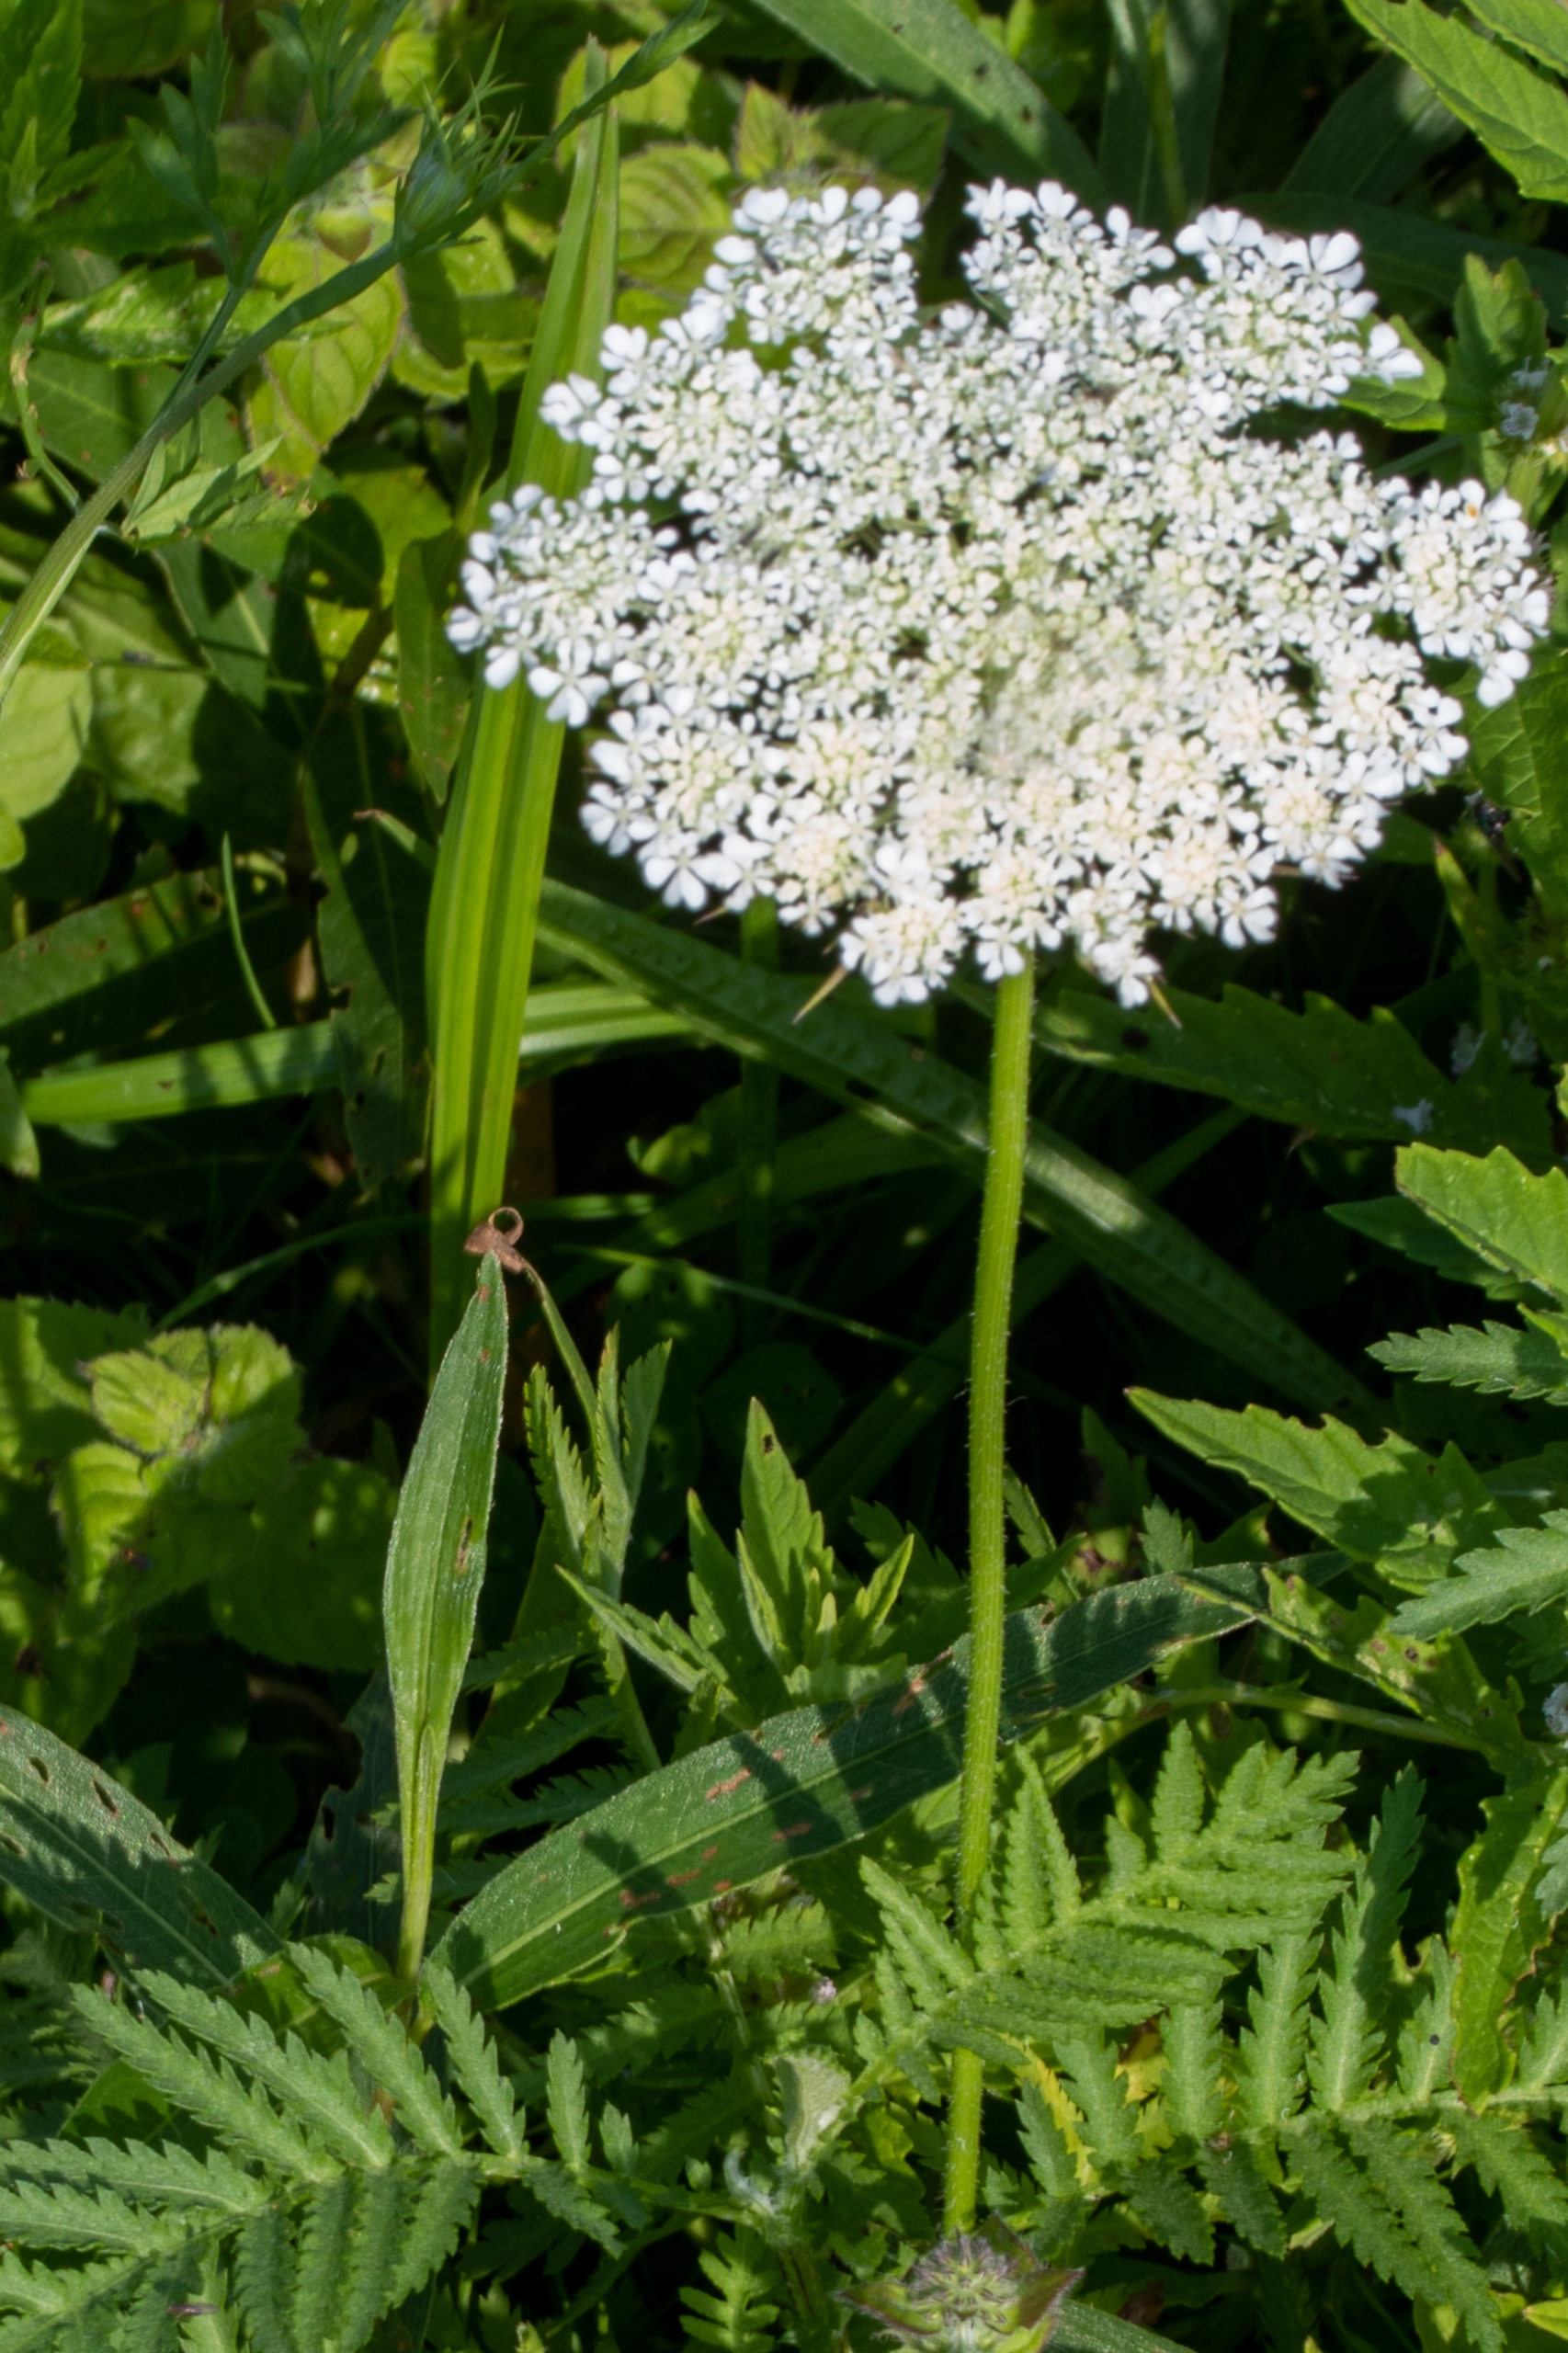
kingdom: Plantae
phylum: Tracheophyta
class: Magnoliopsida
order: Apiales
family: Apiaceae
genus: Daucus
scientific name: Daucus carota
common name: Gulerod
